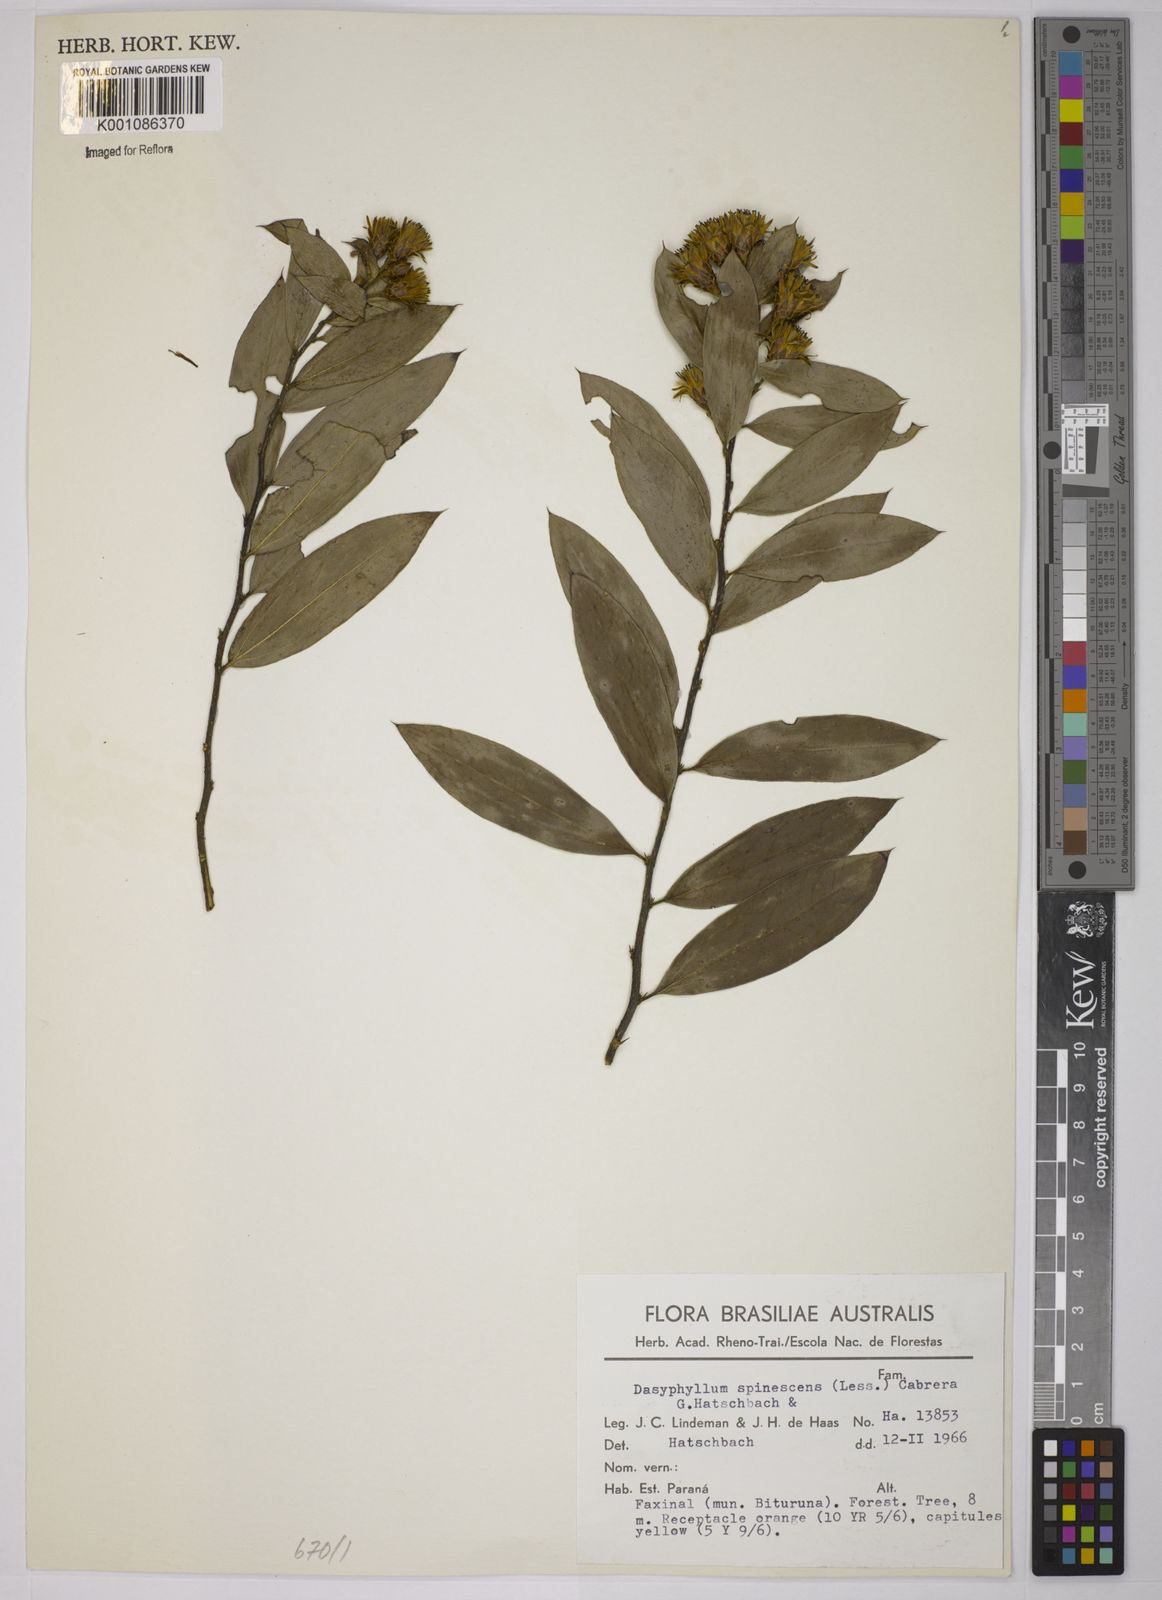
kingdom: Plantae
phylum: Tracheophyta
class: Magnoliopsida
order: Asterales
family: Asteraceae
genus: Dasyphyllum
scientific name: Dasyphyllum spinescens
